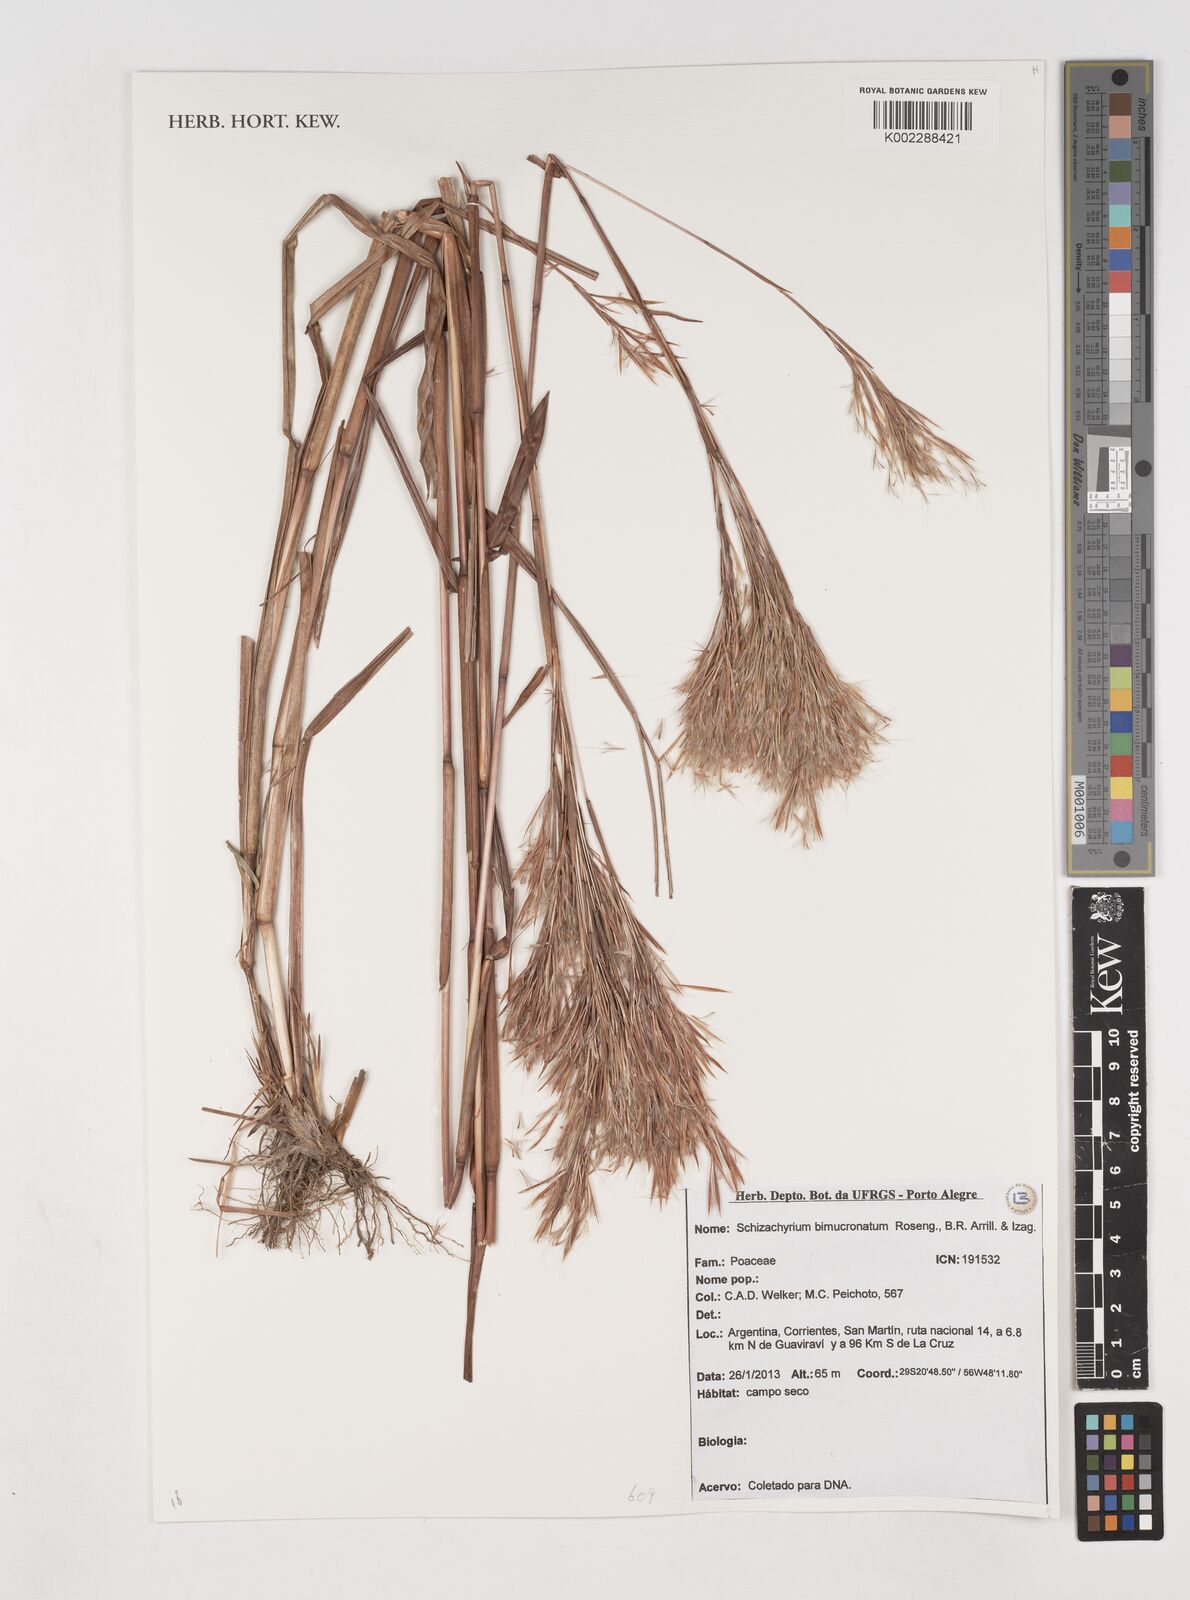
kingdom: Plantae
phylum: Tracheophyta
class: Liliopsida
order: Poales
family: Poaceae
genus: Schizachyrium
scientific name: Schizachyrium condensatum
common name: Bush beardgrass
